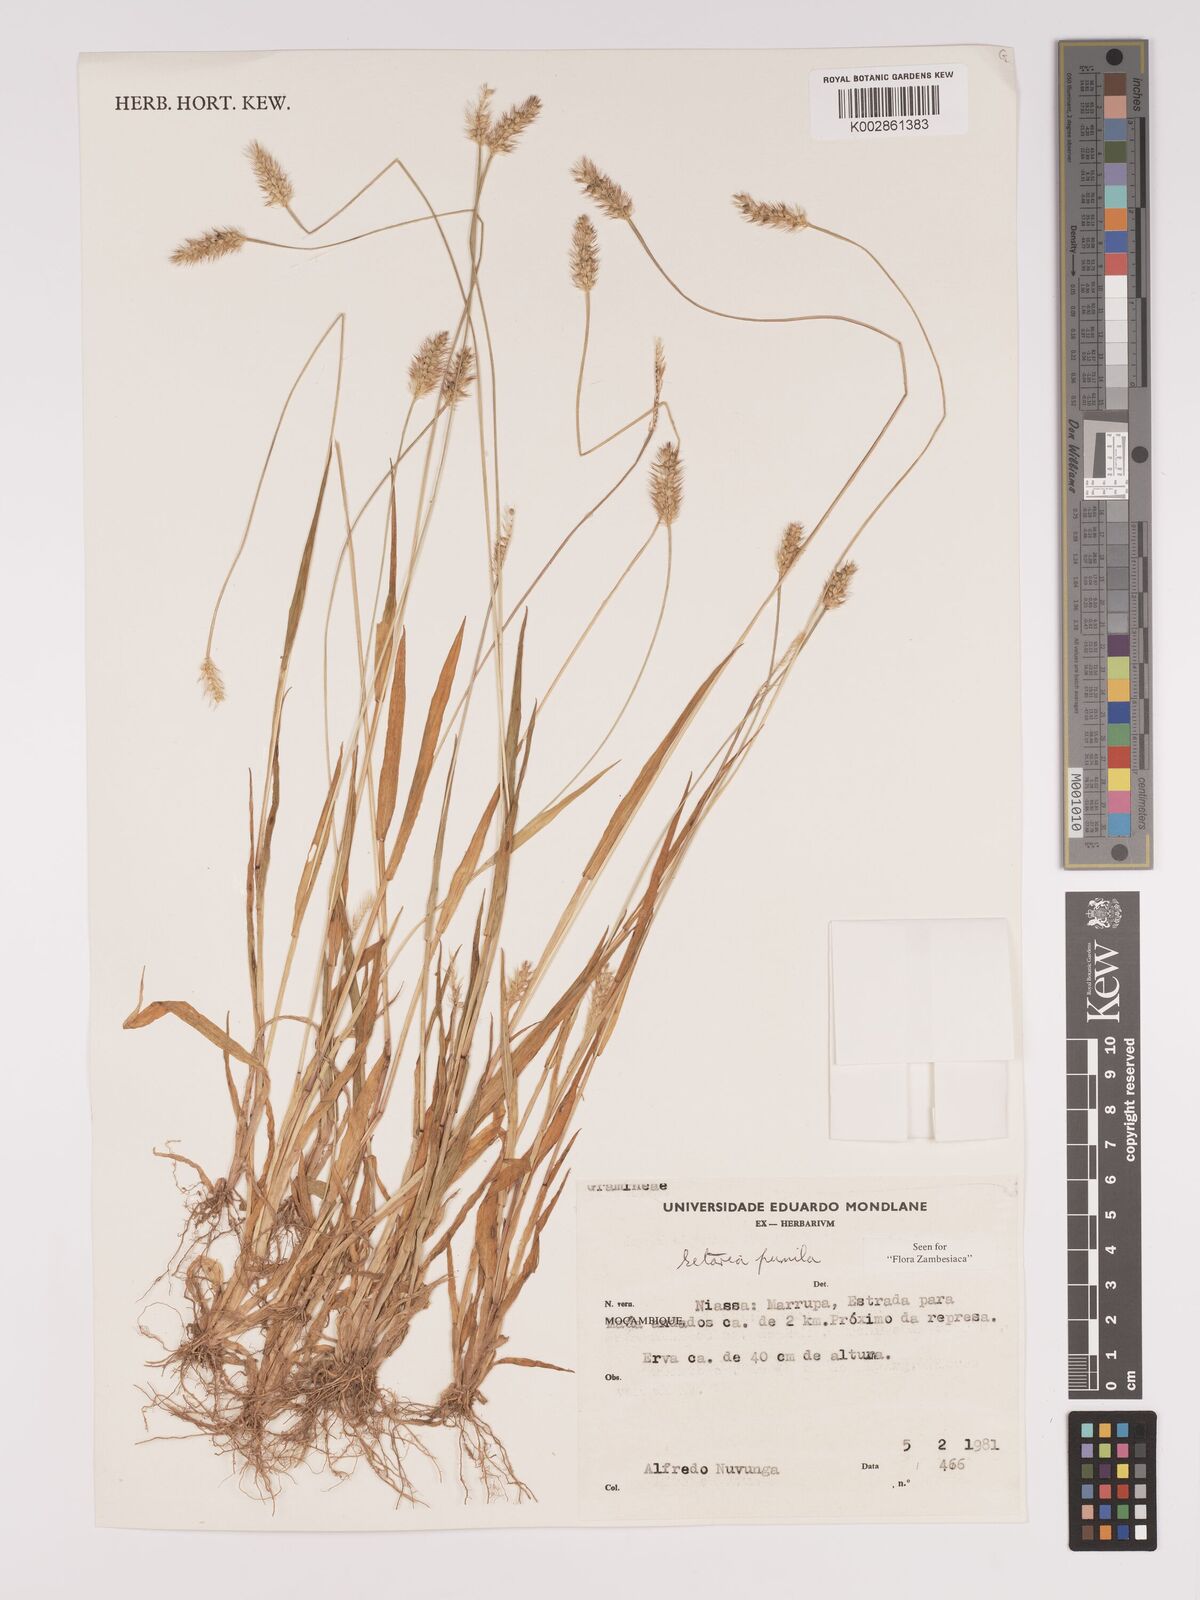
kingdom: Plantae
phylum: Tracheophyta
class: Liliopsida
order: Poales
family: Poaceae
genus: Setaria
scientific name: Setaria pumila
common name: Yellow bristle-grass
